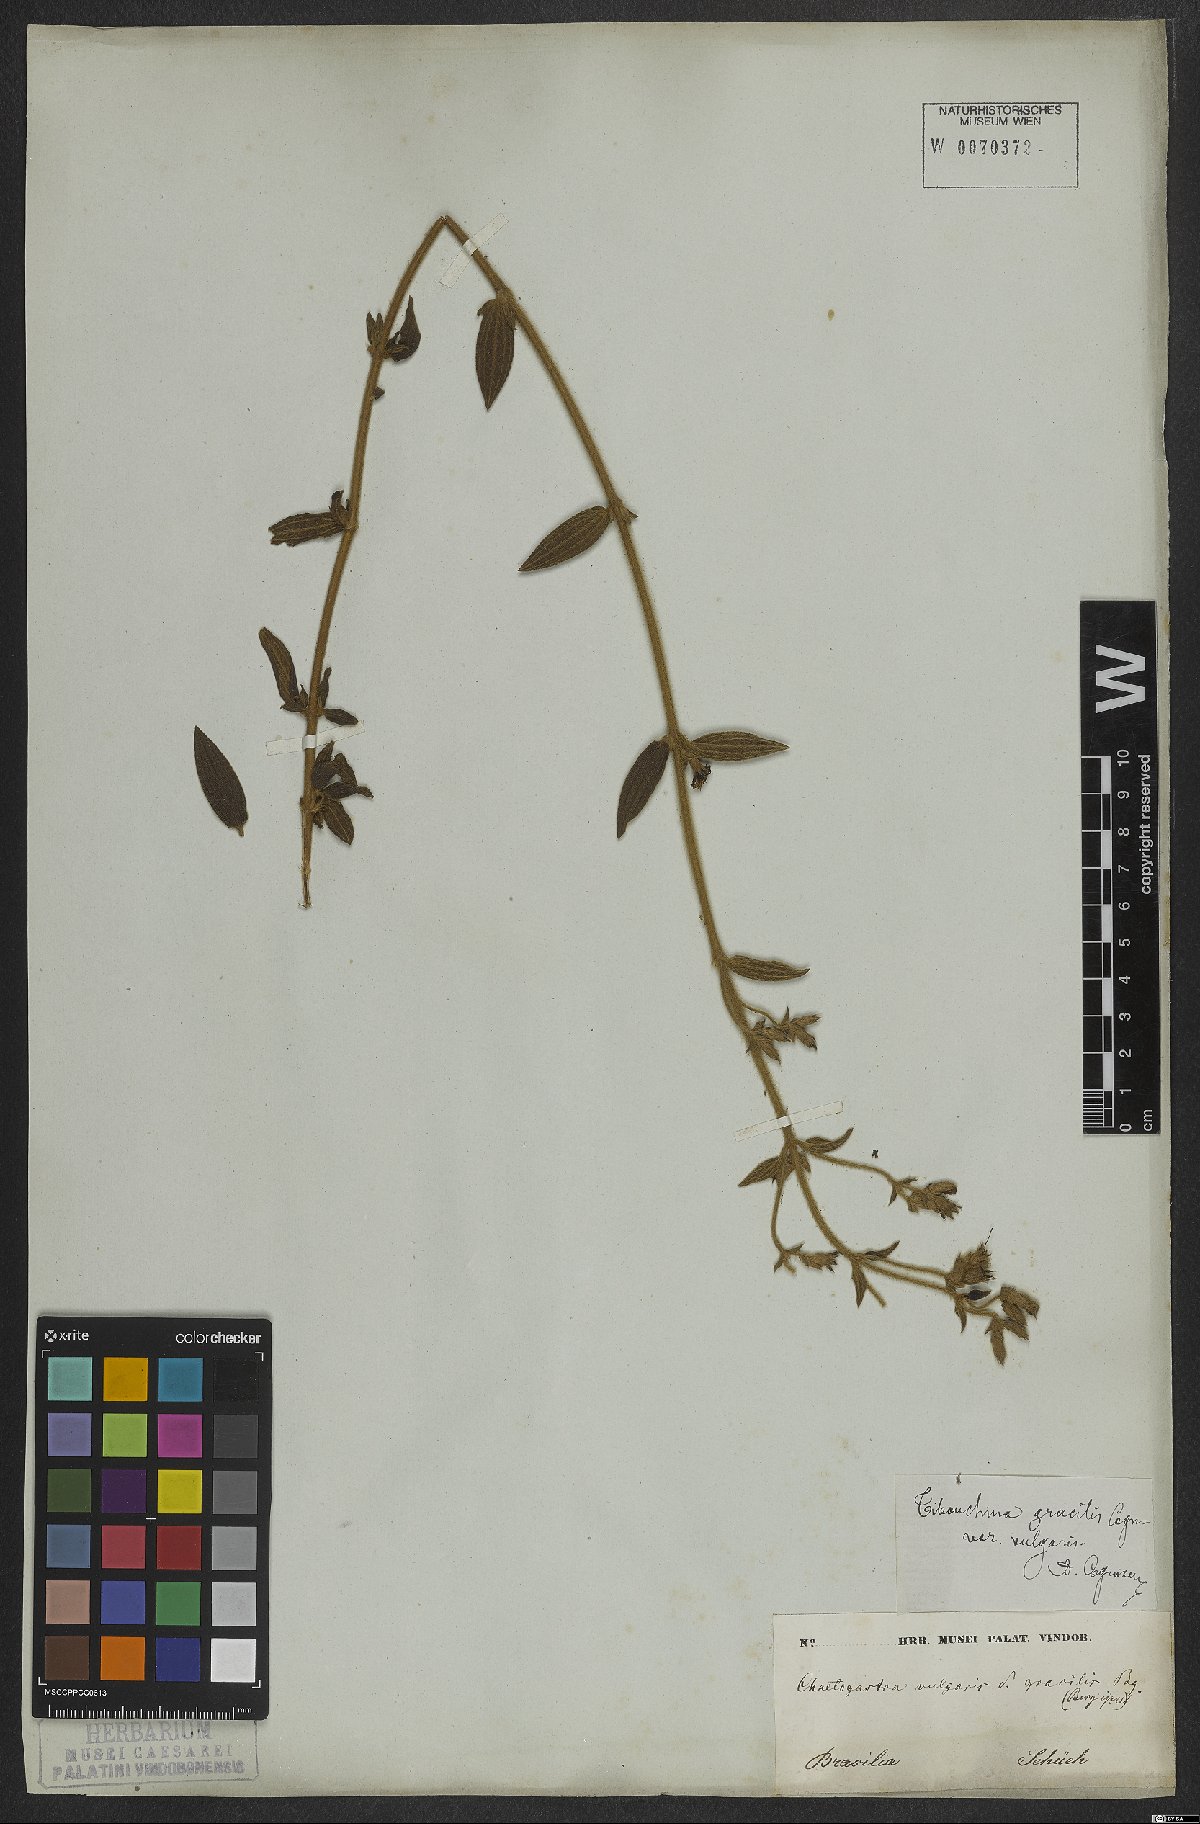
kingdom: Plantae
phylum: Tracheophyta
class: Magnoliopsida
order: Myrtales
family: Melastomataceae
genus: Chaetogastra
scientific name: Chaetogastra gracilis
